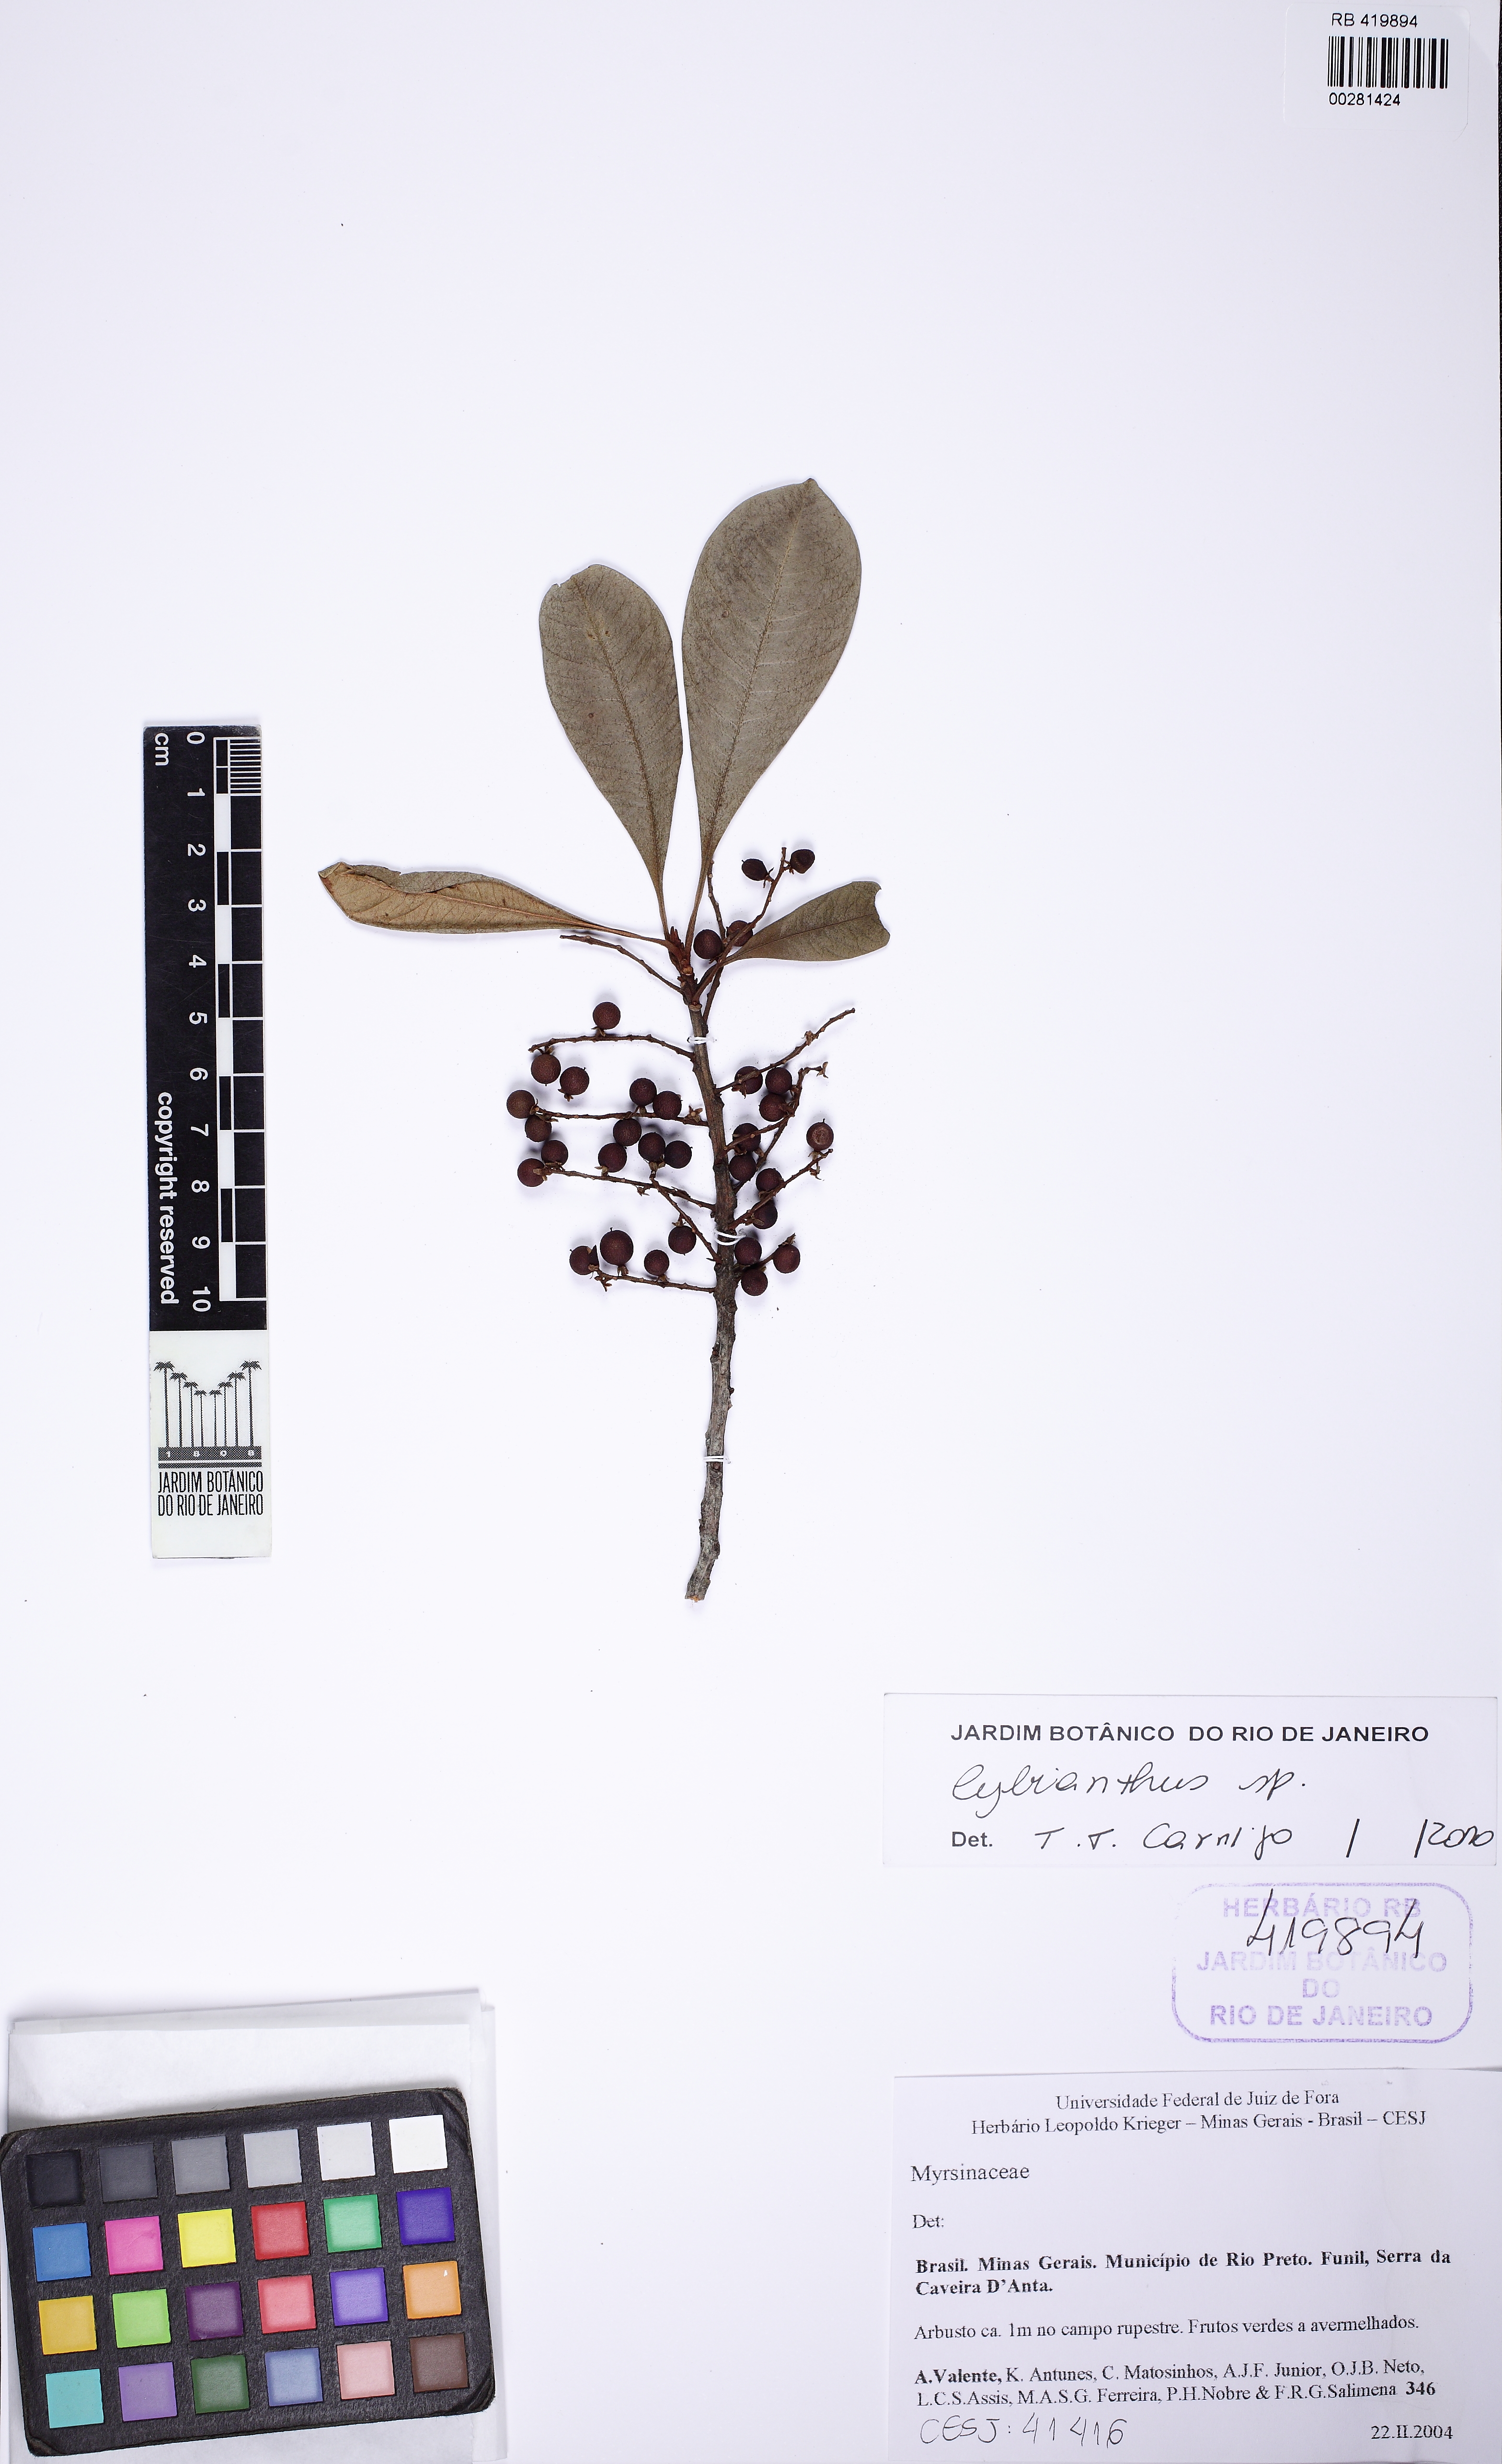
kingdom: Plantae
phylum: Tracheophyta
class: Magnoliopsida
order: Ericales
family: Primulaceae
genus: Cybianthus
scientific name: Cybianthus
